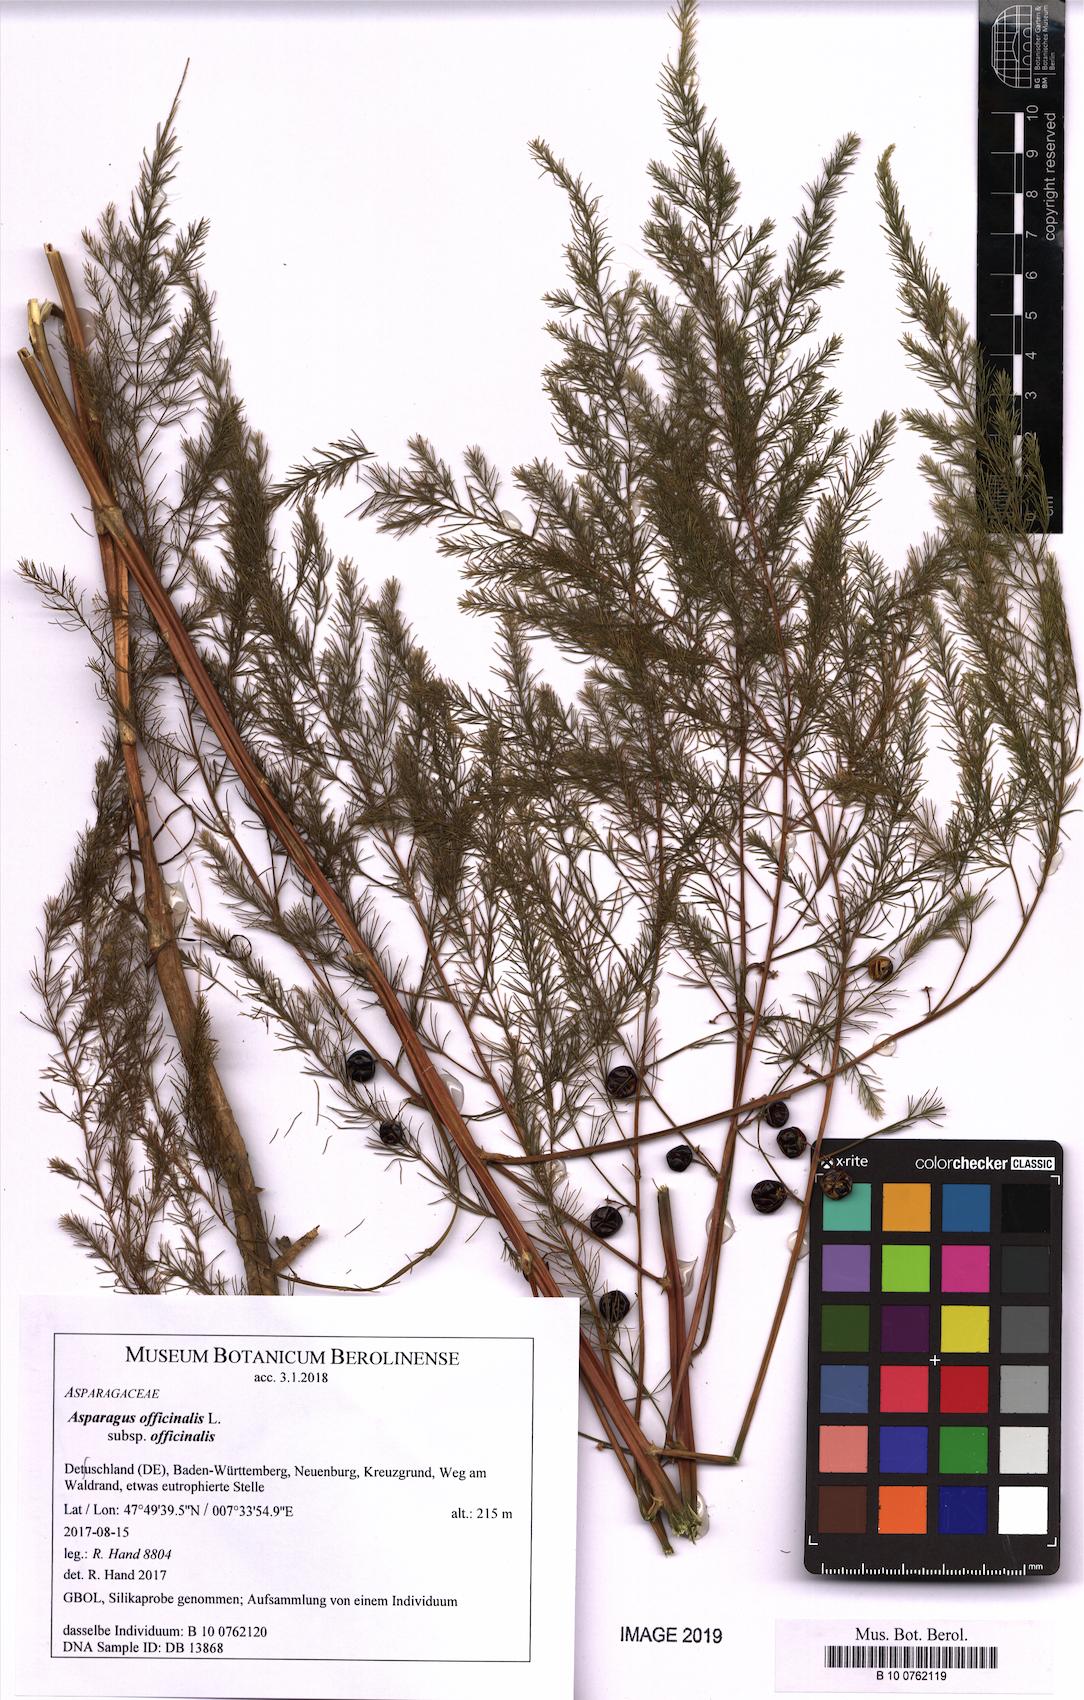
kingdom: Plantae
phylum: Tracheophyta
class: Liliopsida
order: Asparagales
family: Asparagaceae
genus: Asparagus
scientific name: Asparagus officinalis
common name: Garden asparagus
